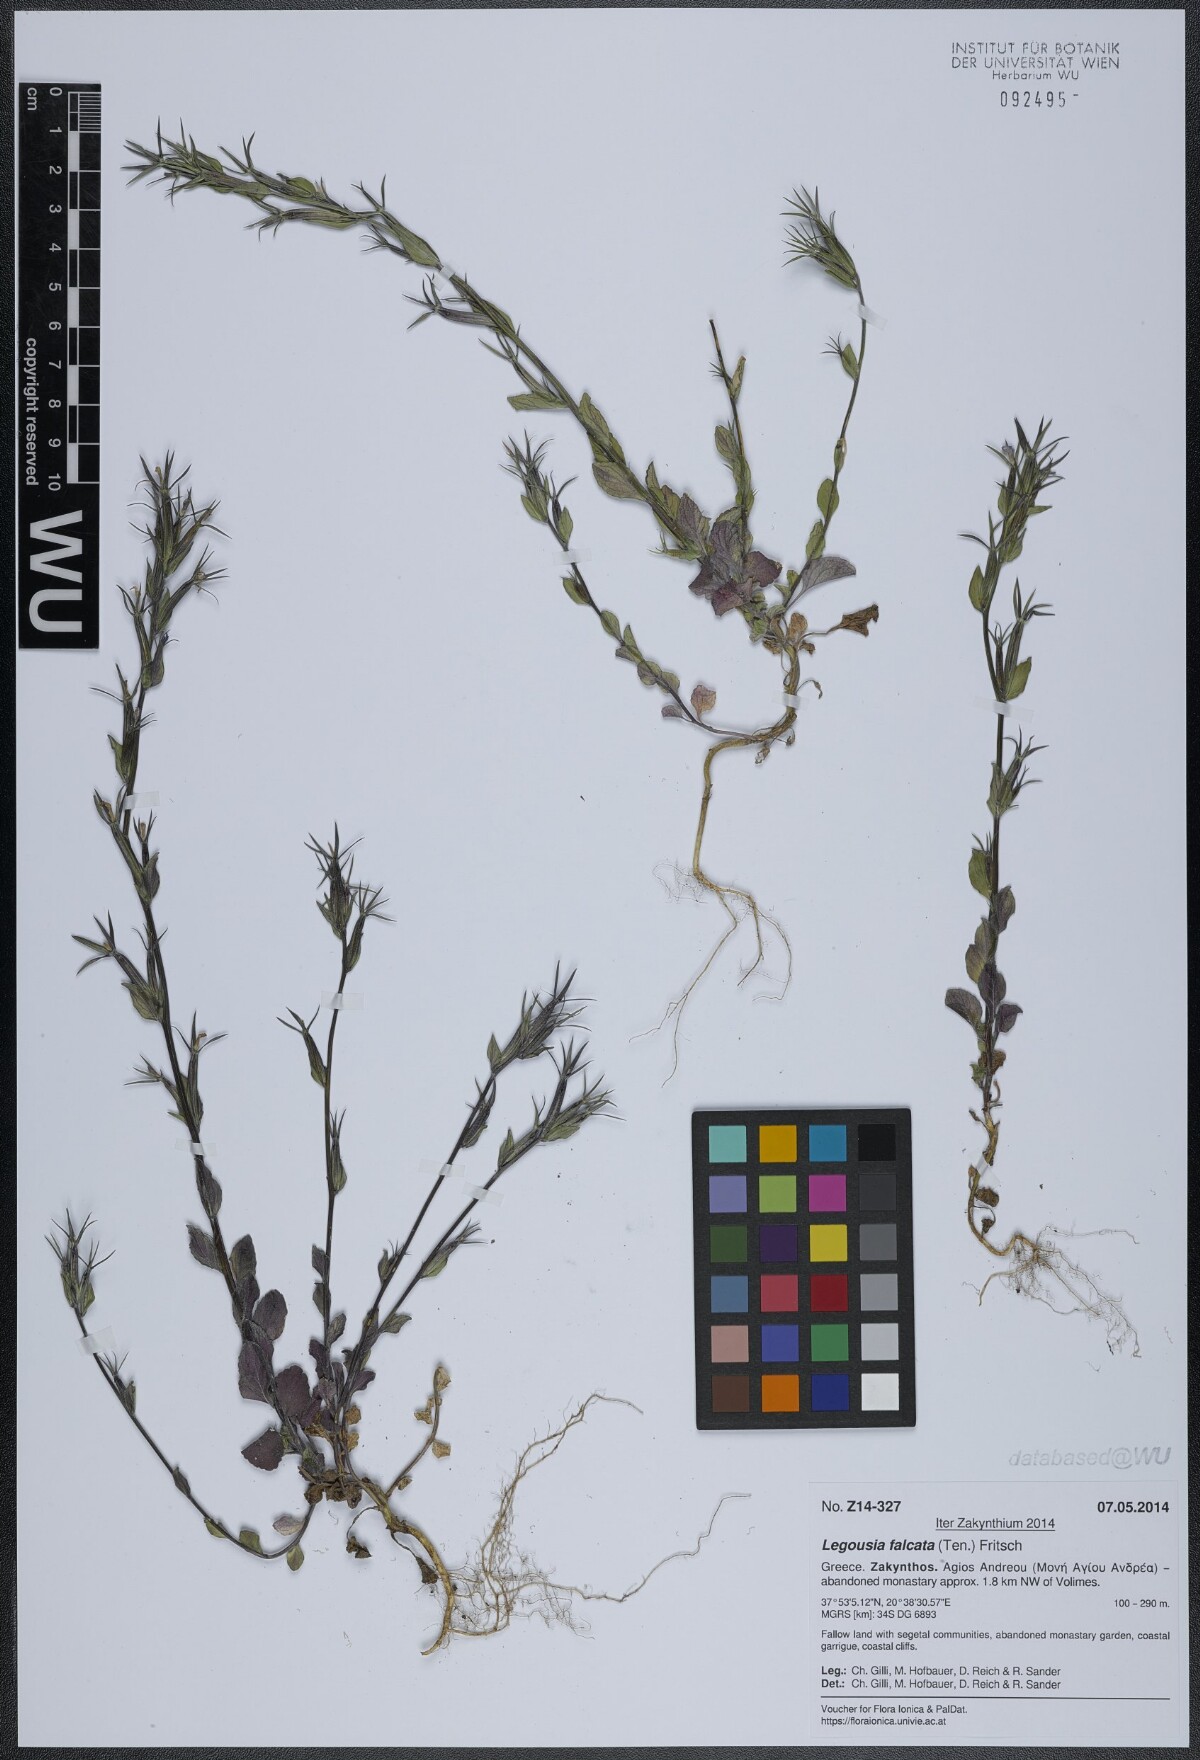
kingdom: Plantae
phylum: Tracheophyta
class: Magnoliopsida
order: Asterales
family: Campanulaceae
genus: Legousia
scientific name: Legousia falcata
